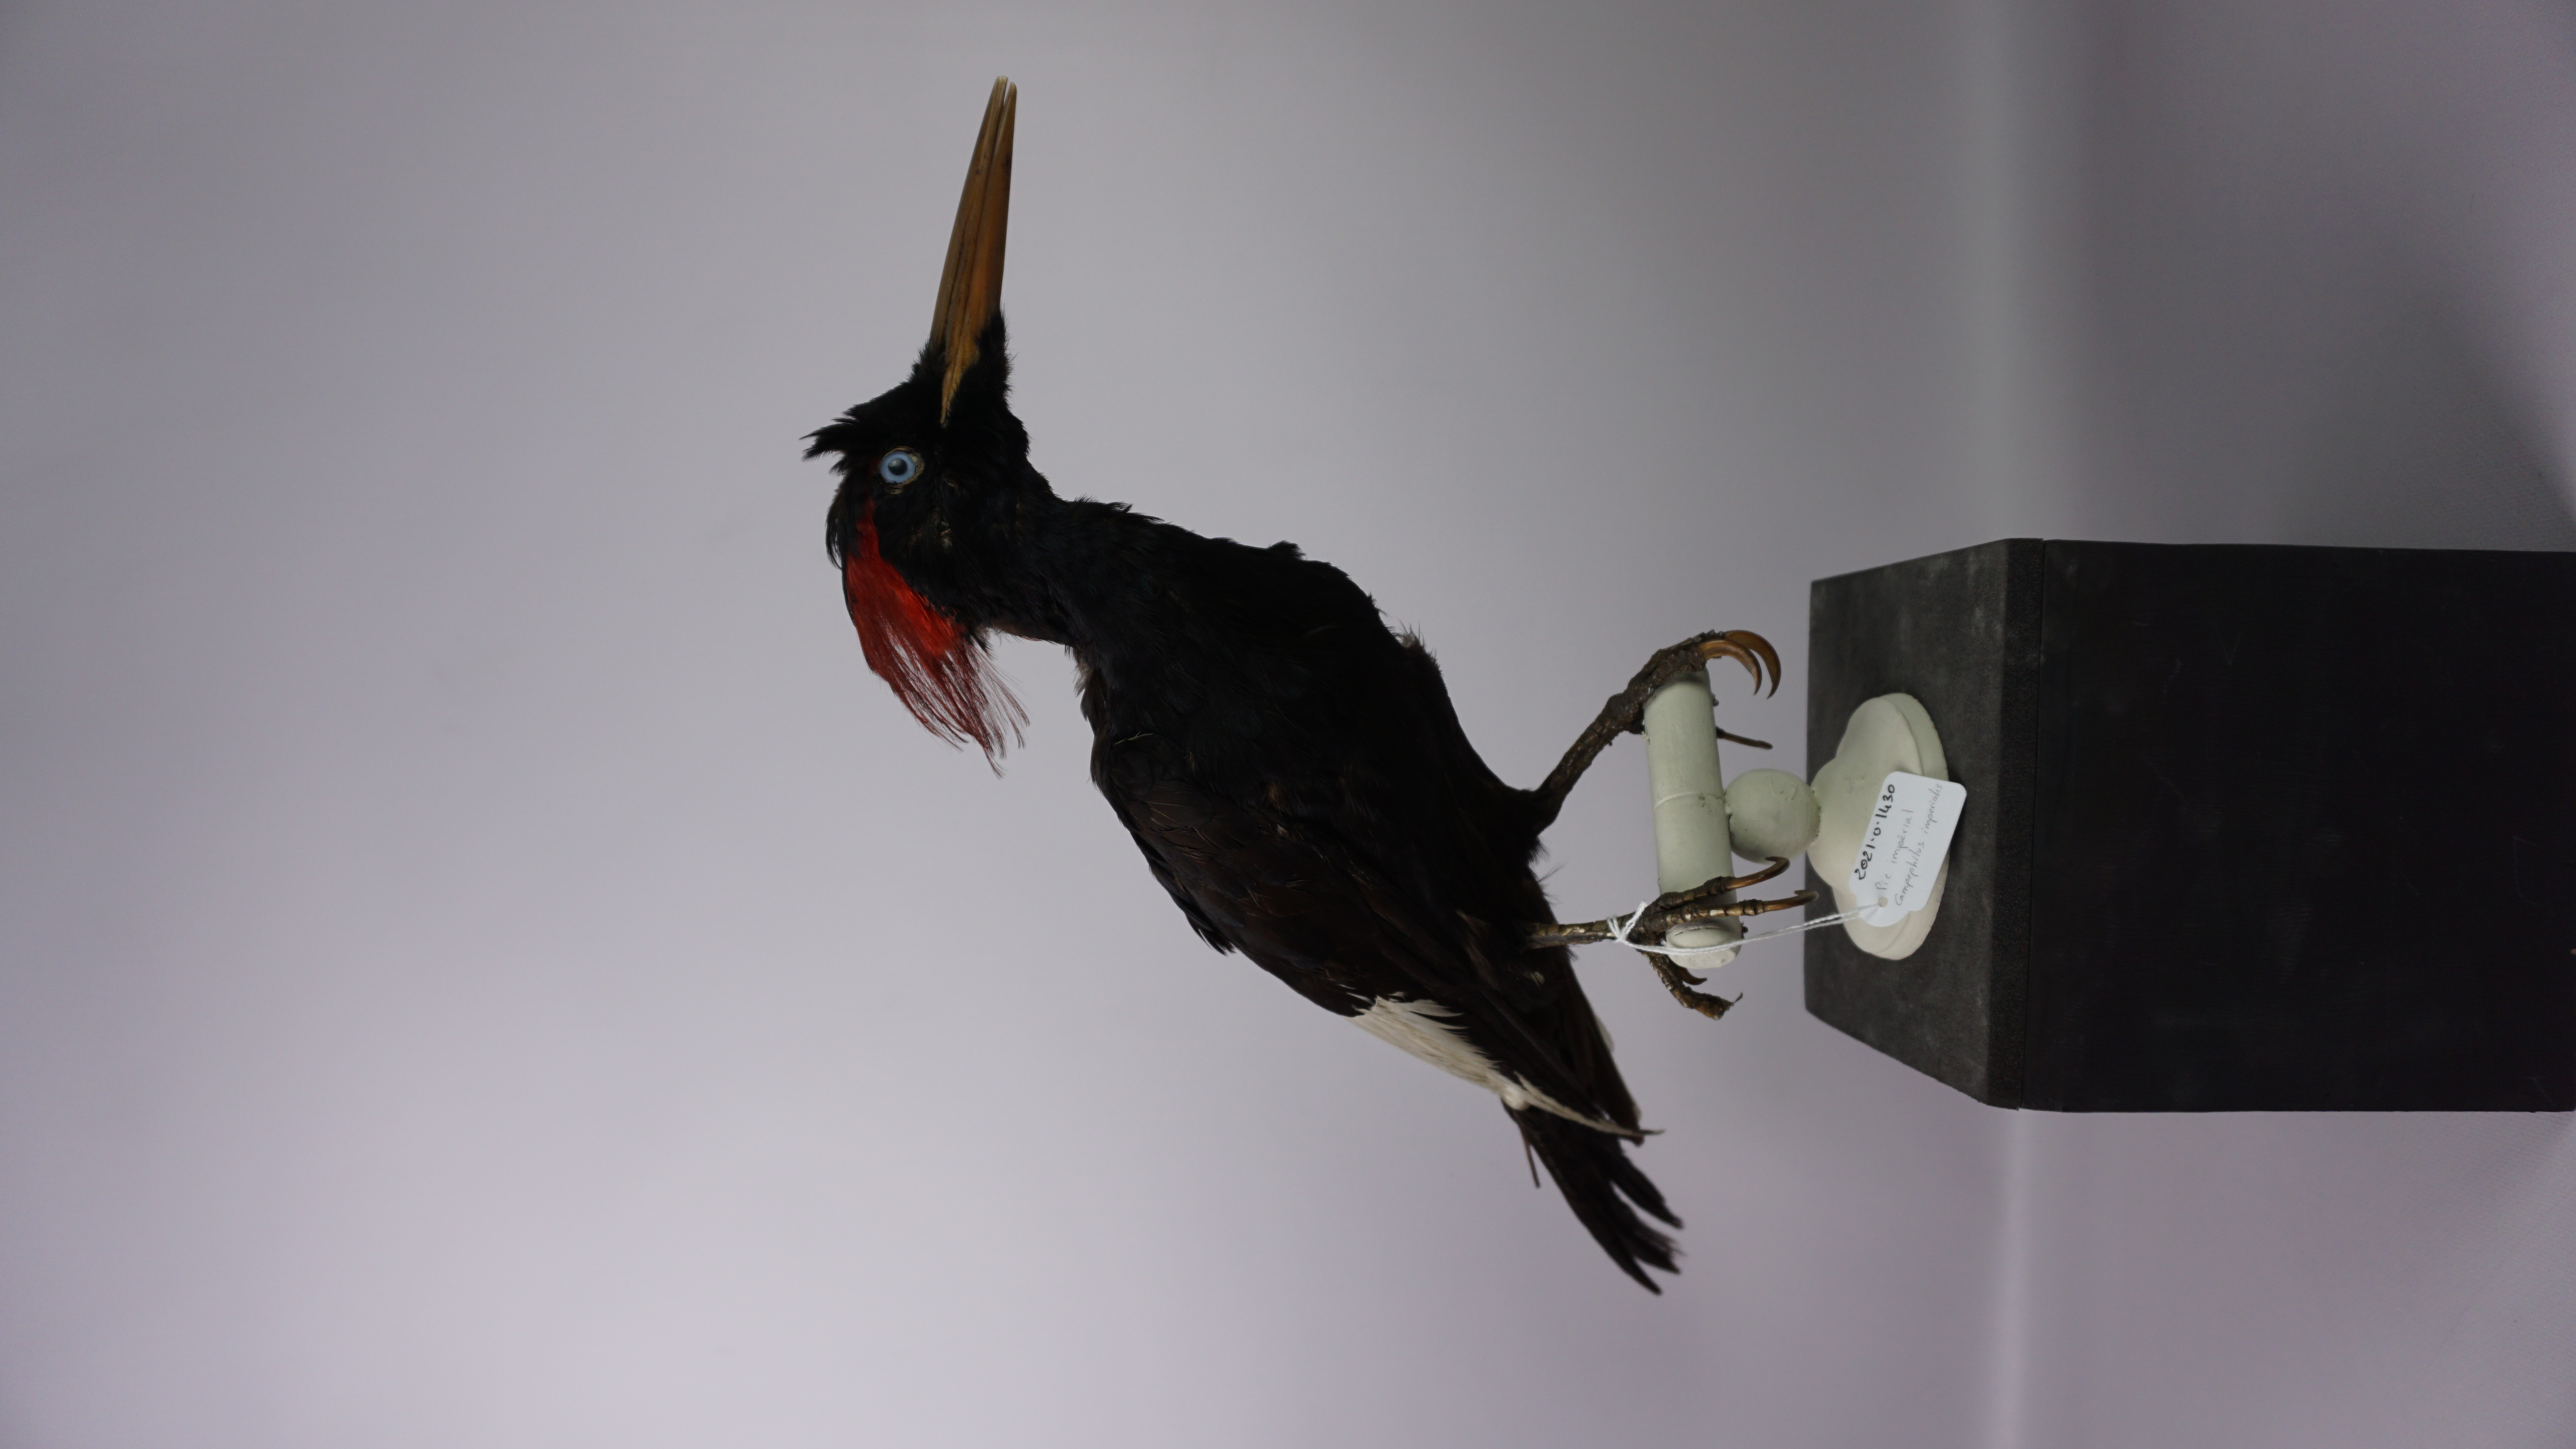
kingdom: Animalia
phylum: Chordata
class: Aves
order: Piciformes
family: Picidae
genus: Campephilus
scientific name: Campephilus imperialis
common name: Imperial woodpecker
